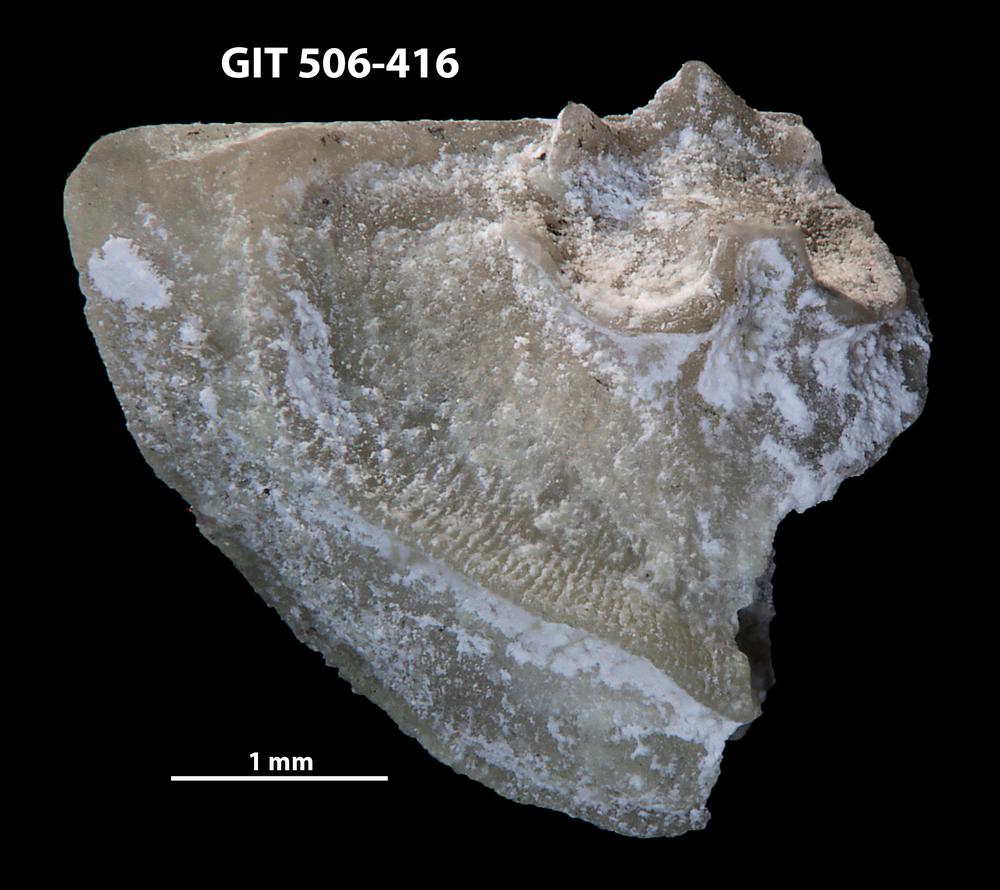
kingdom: Animalia
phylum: Brachiopoda
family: Leptellinidae
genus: Leangella
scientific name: Leangella Plectambonites scissa
